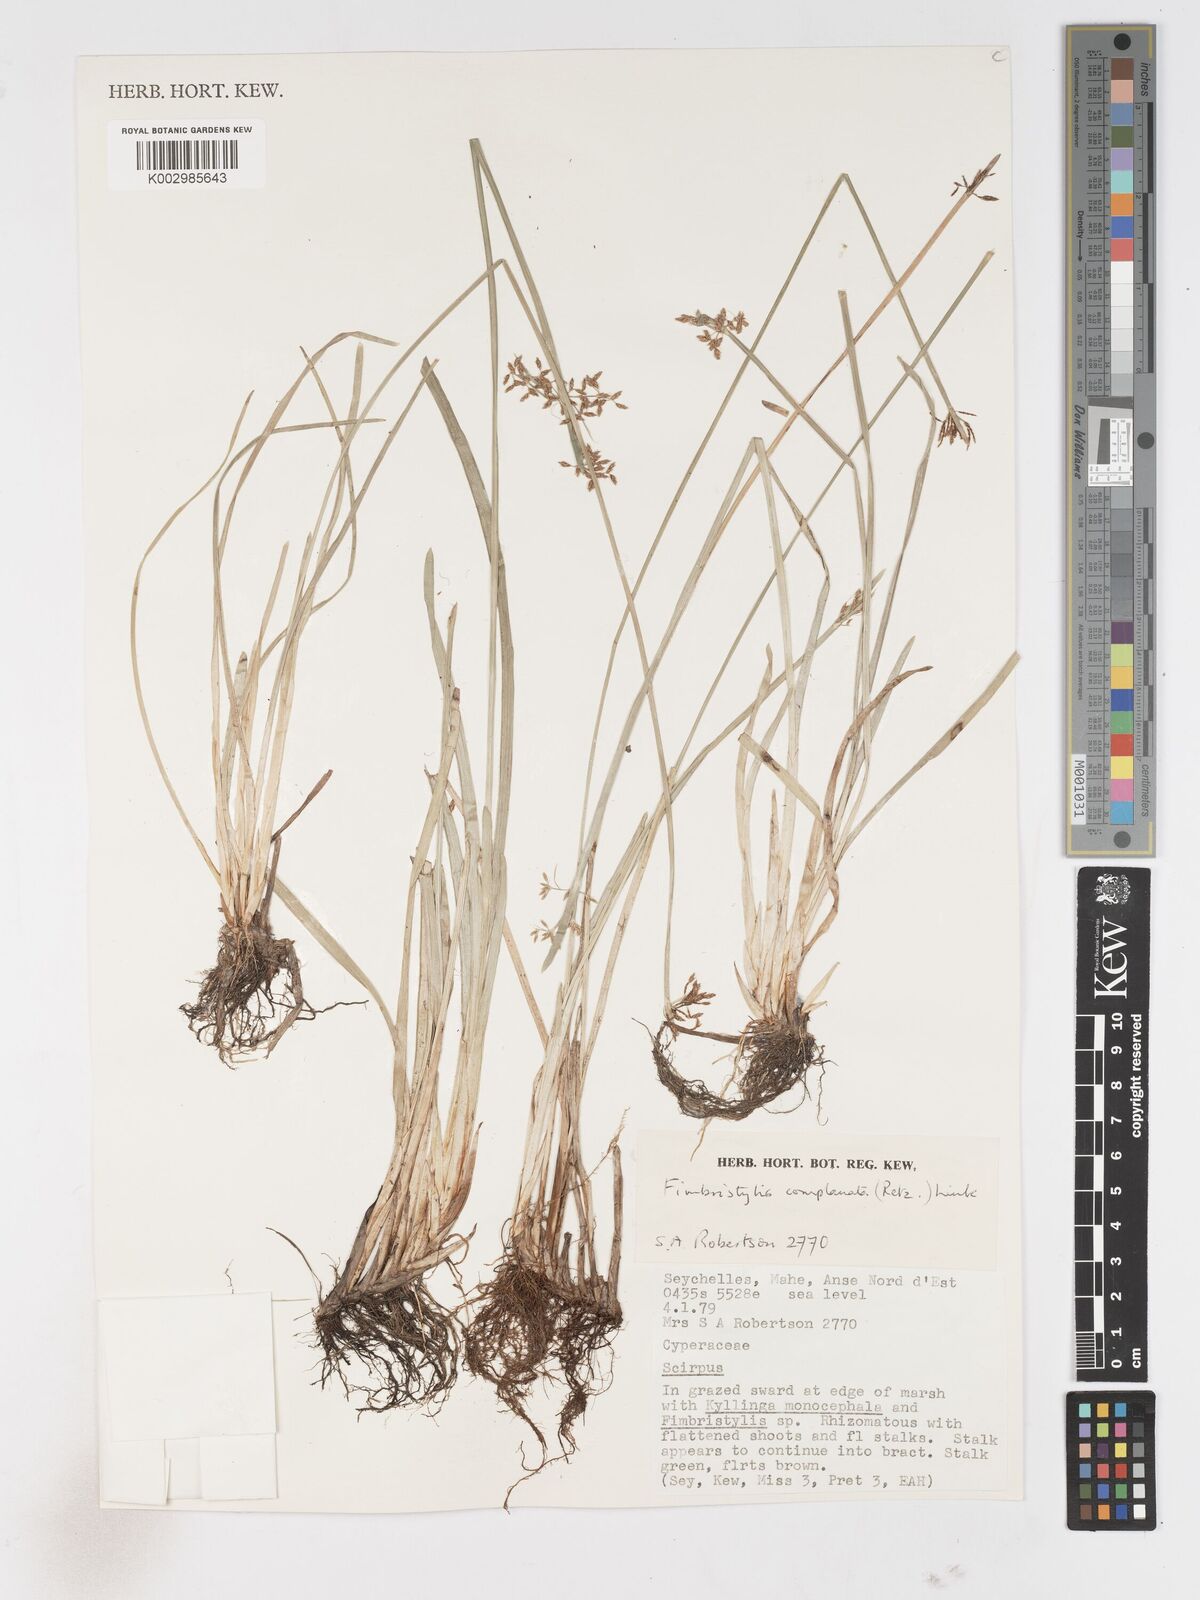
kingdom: Plantae
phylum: Tracheophyta
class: Liliopsida
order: Poales
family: Cyperaceae
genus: Fimbristylis
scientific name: Fimbristylis complanata
